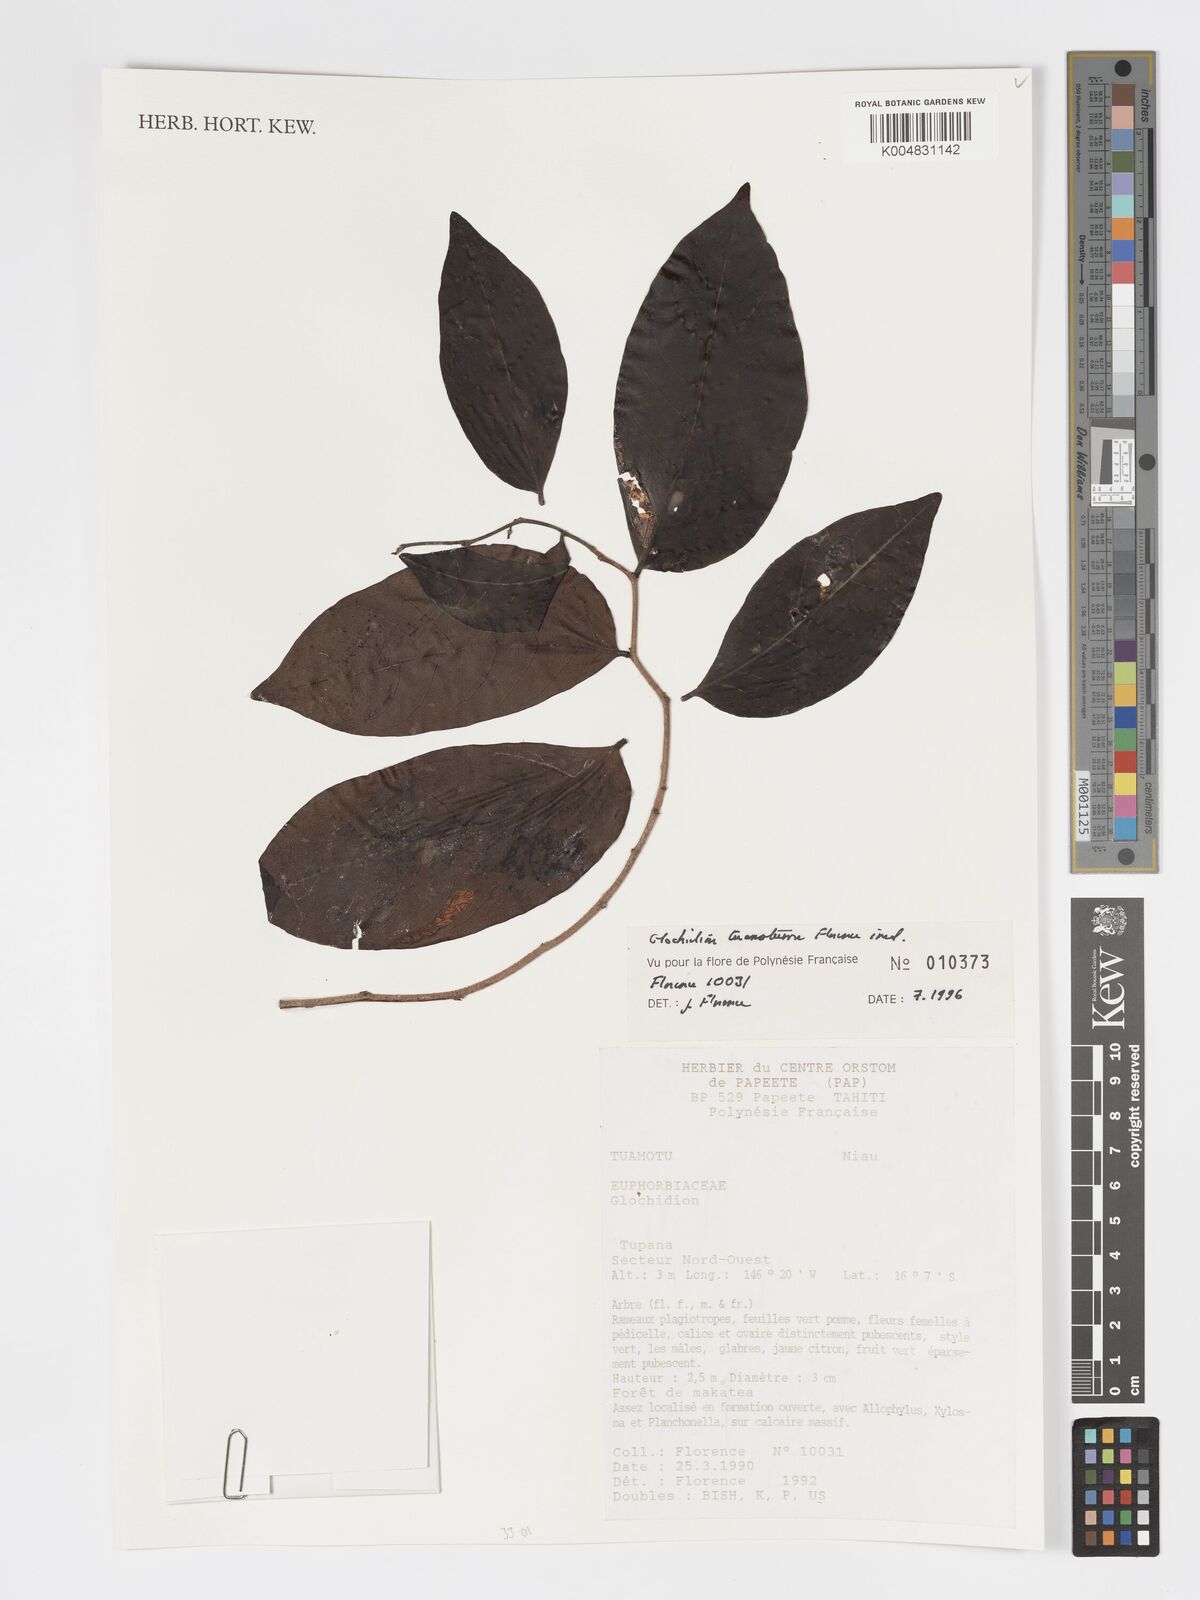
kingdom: Plantae
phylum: Tracheophyta
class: Magnoliopsida
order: Malpighiales
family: Phyllanthaceae
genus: Glochidion
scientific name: Glochidion tuamotuense
